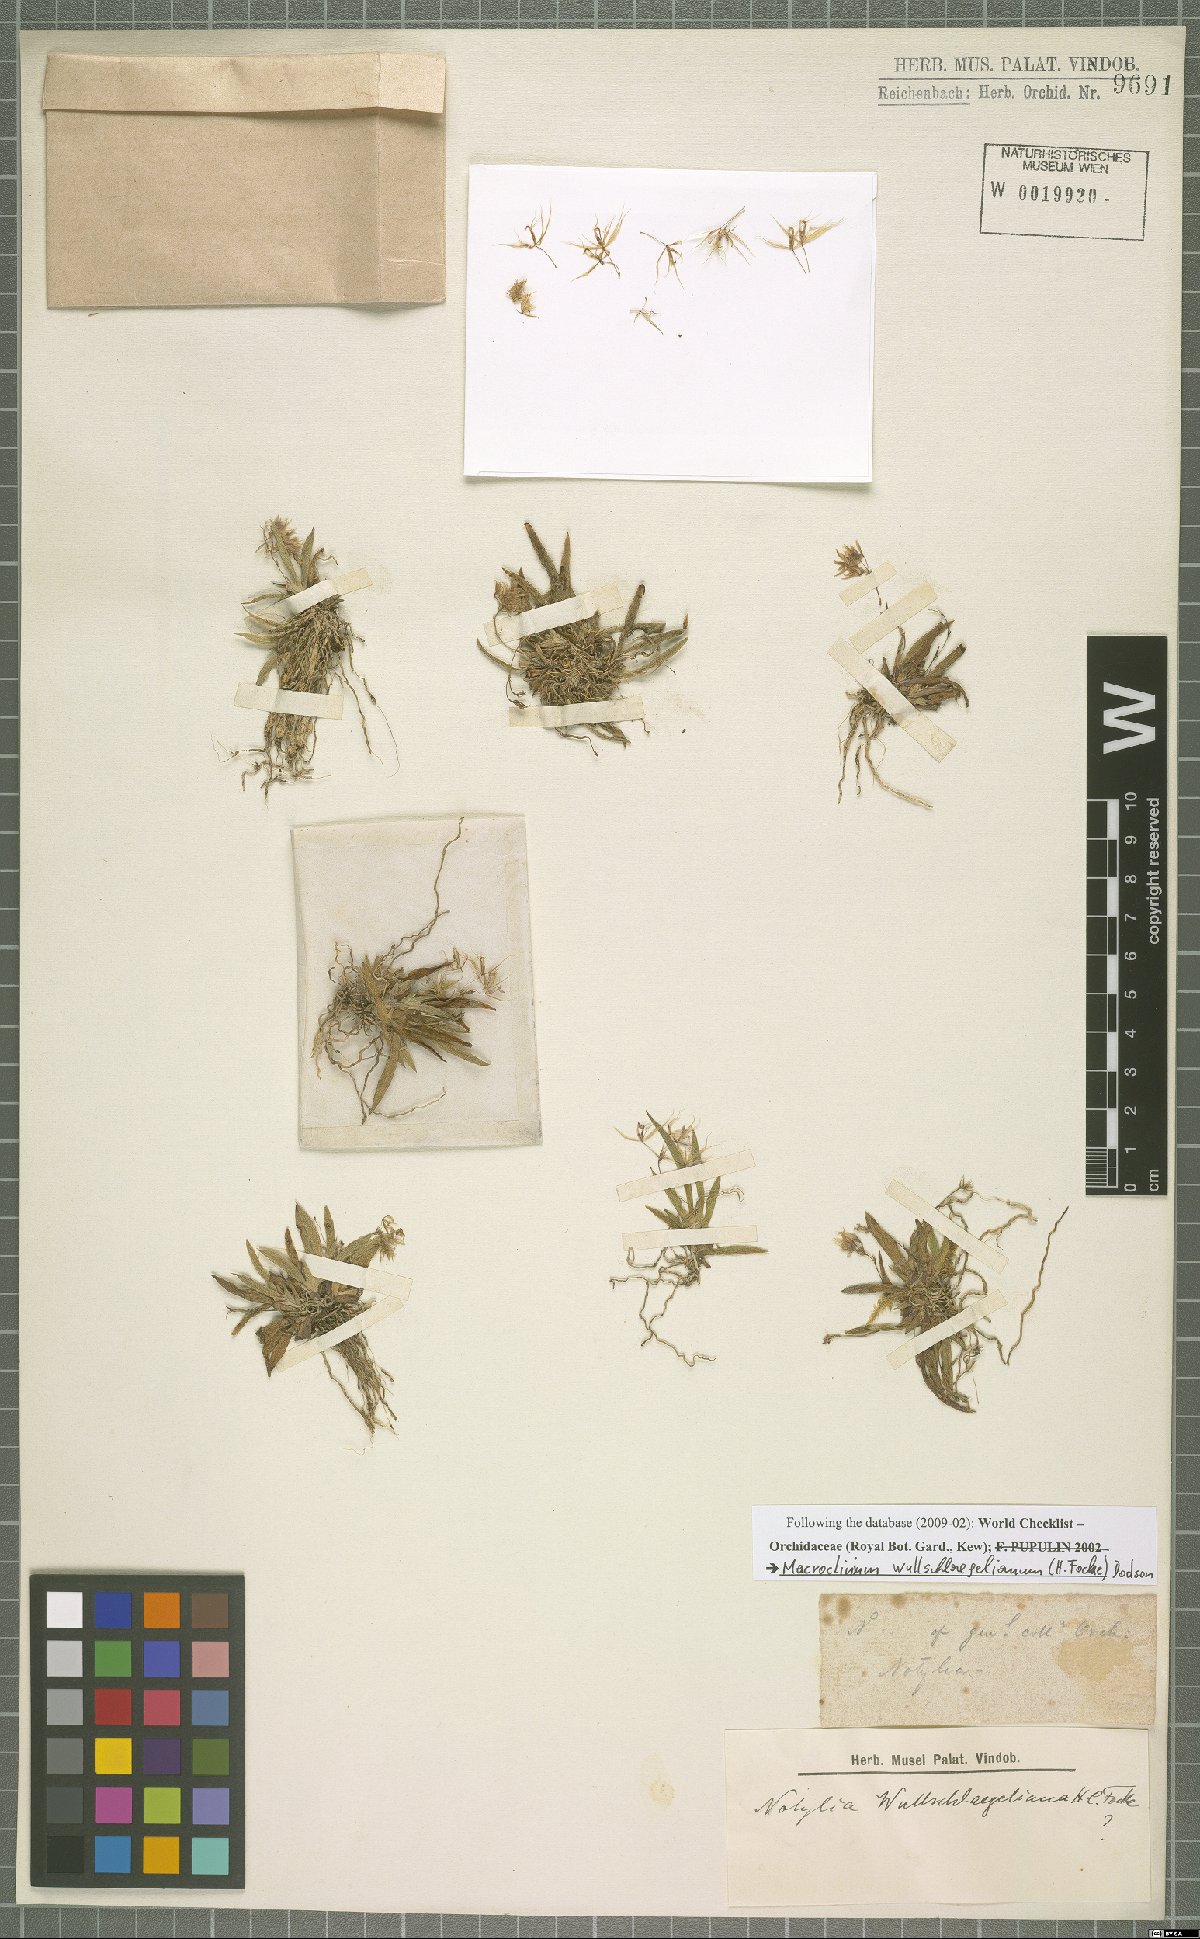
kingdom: Plantae
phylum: Tracheophyta
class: Liliopsida
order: Asparagales
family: Orchidaceae
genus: Macroclinium
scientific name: Macroclinium wullschlaegelianum
